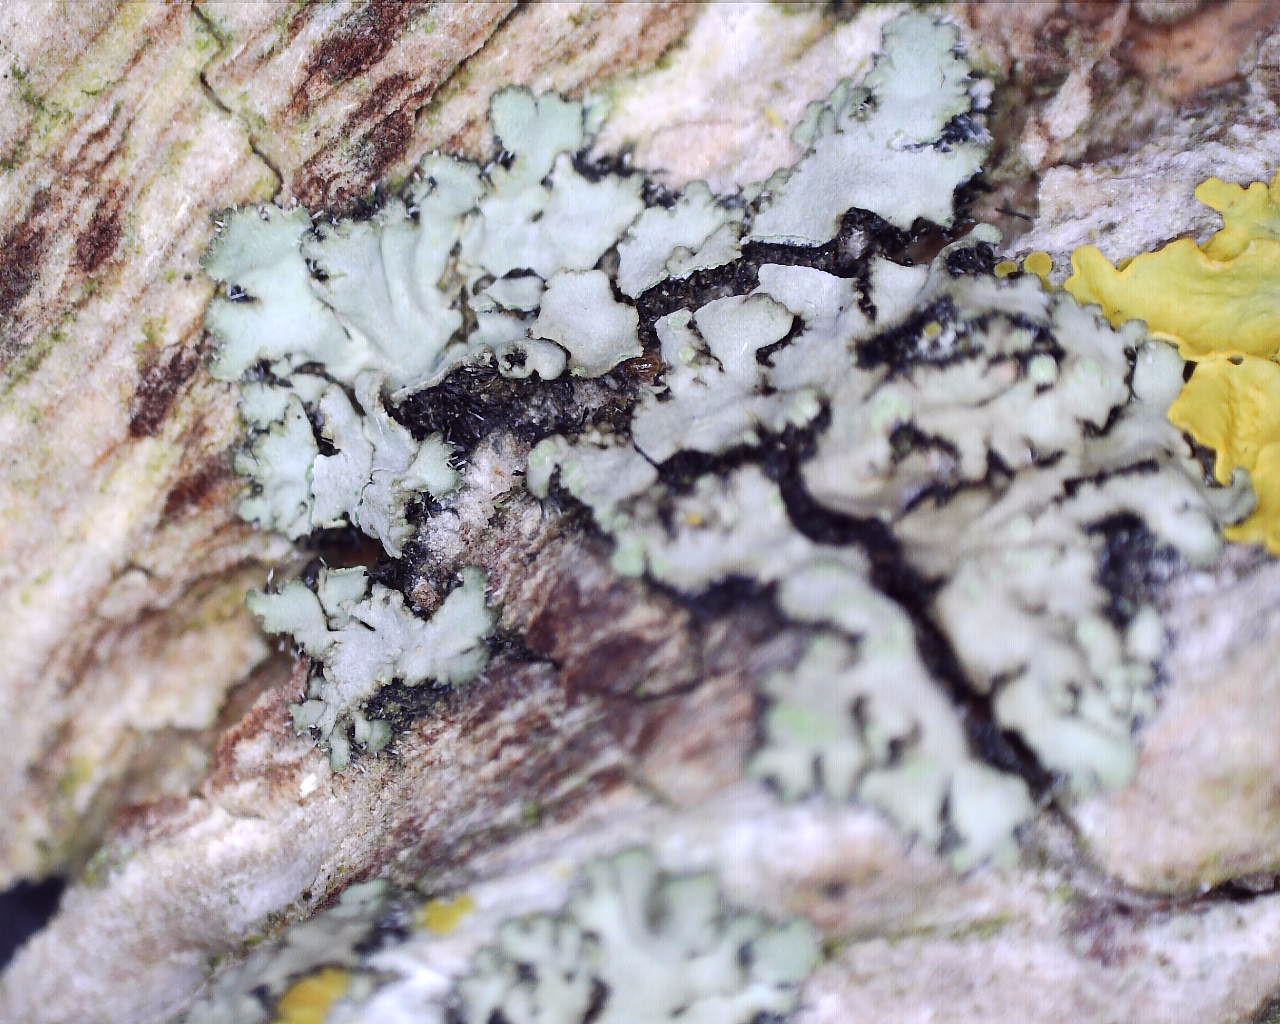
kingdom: Fungi
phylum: Ascomycota
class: Lecanoromycetes
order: Caliciales
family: Physciaceae
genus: Phaeophyscia
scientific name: Phaeophyscia orbicularis
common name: grågrøn rosetlav
